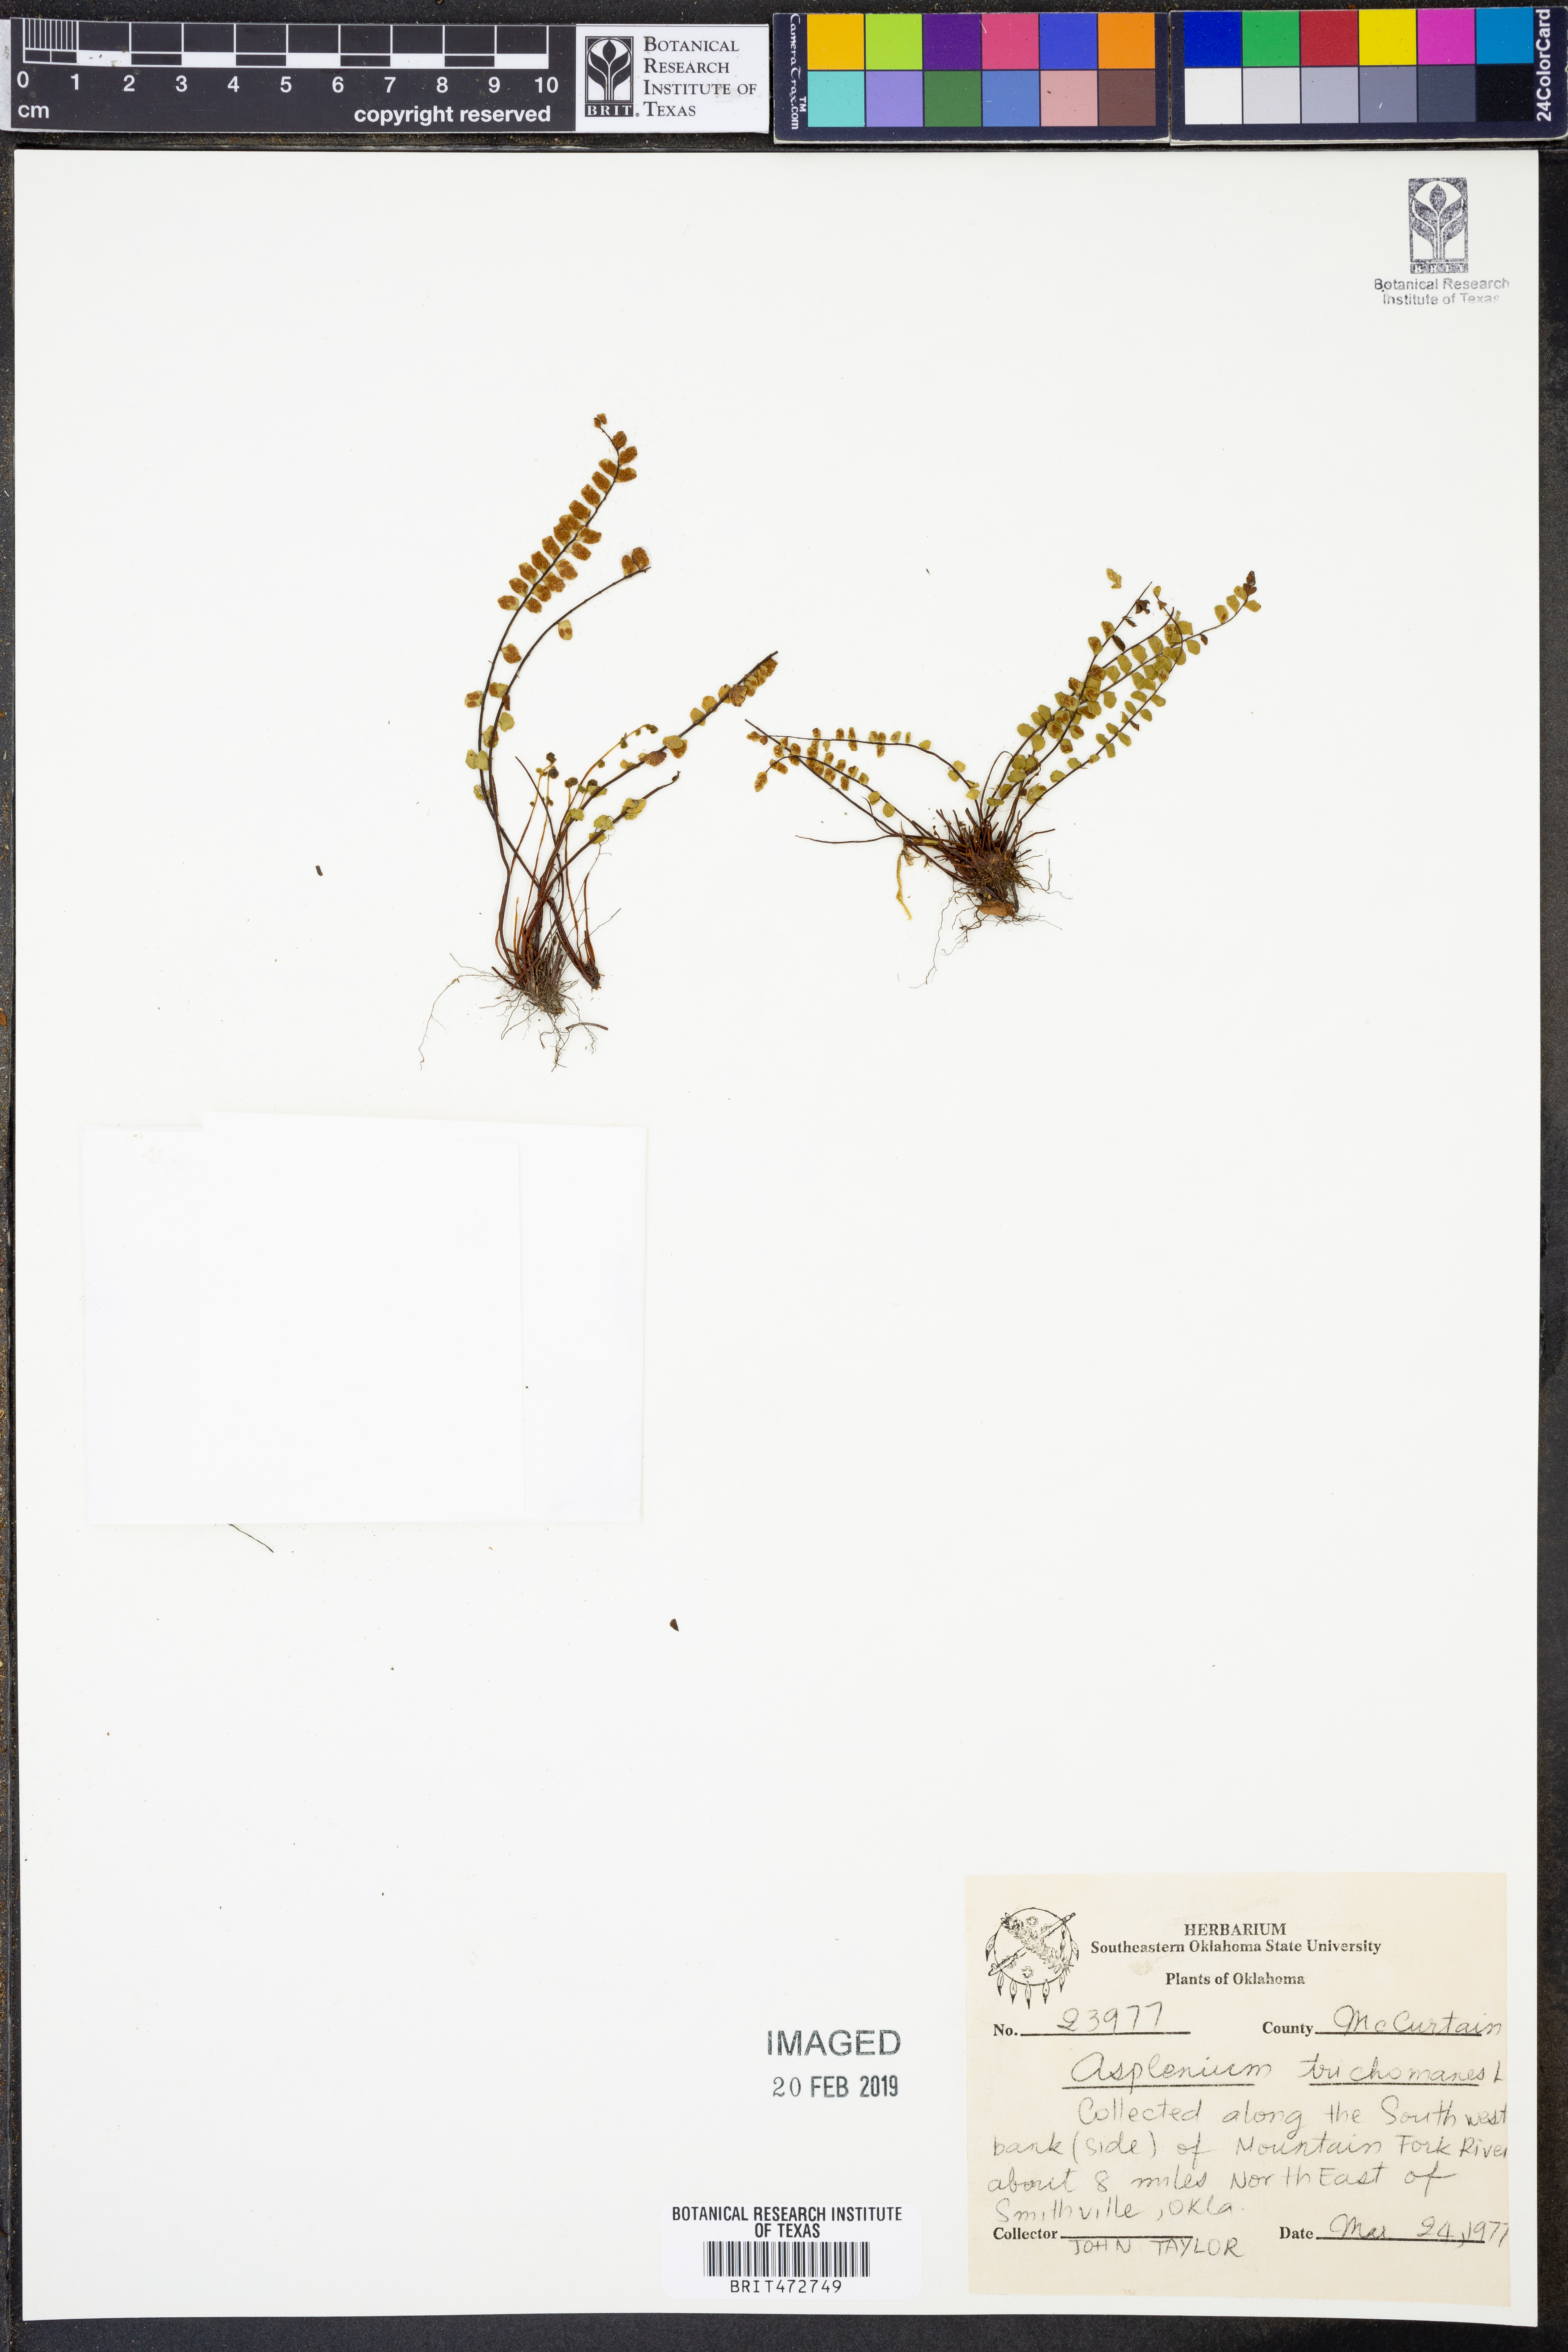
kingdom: Plantae
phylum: Tracheophyta
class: Polypodiopsida
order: Polypodiales
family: Aspleniaceae
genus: Asplenium
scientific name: Asplenium trichomanes
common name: Maidenhair spleenwort
